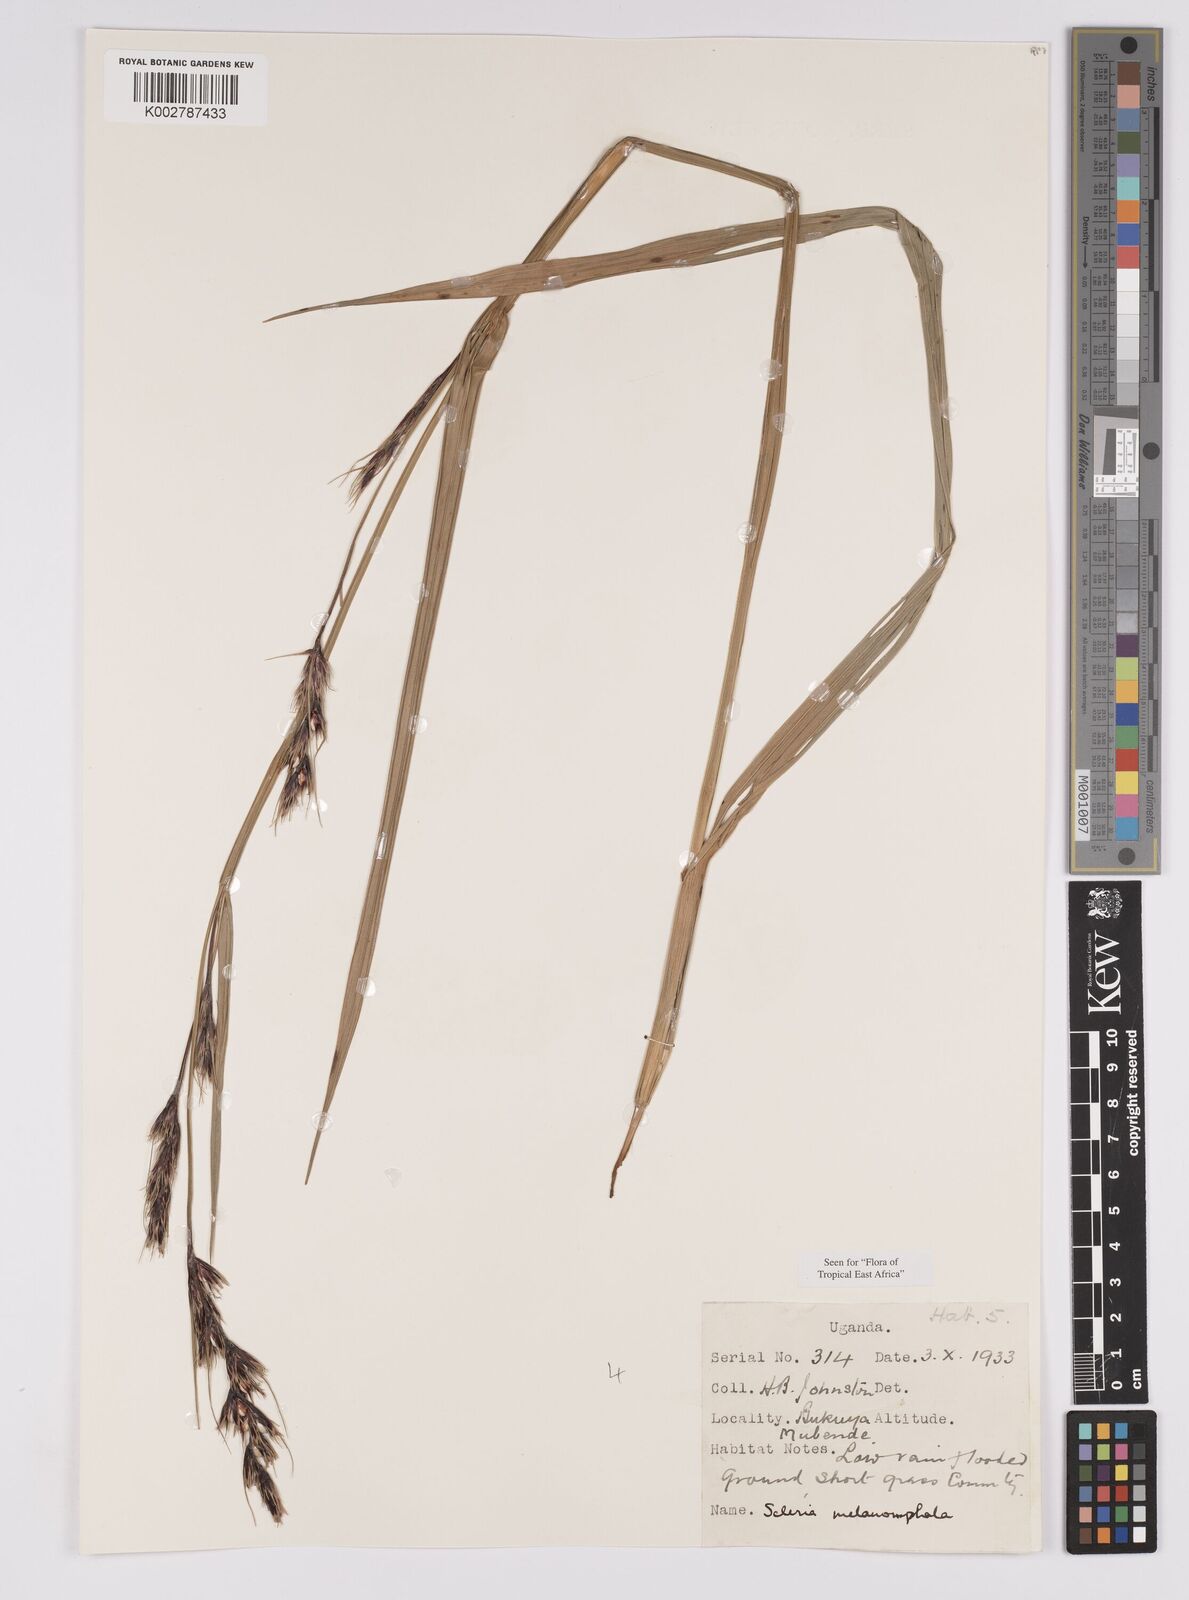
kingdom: Plantae
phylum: Tracheophyta
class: Liliopsida
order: Poales
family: Cyperaceae
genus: Scleria
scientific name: Scleria melanomphala
